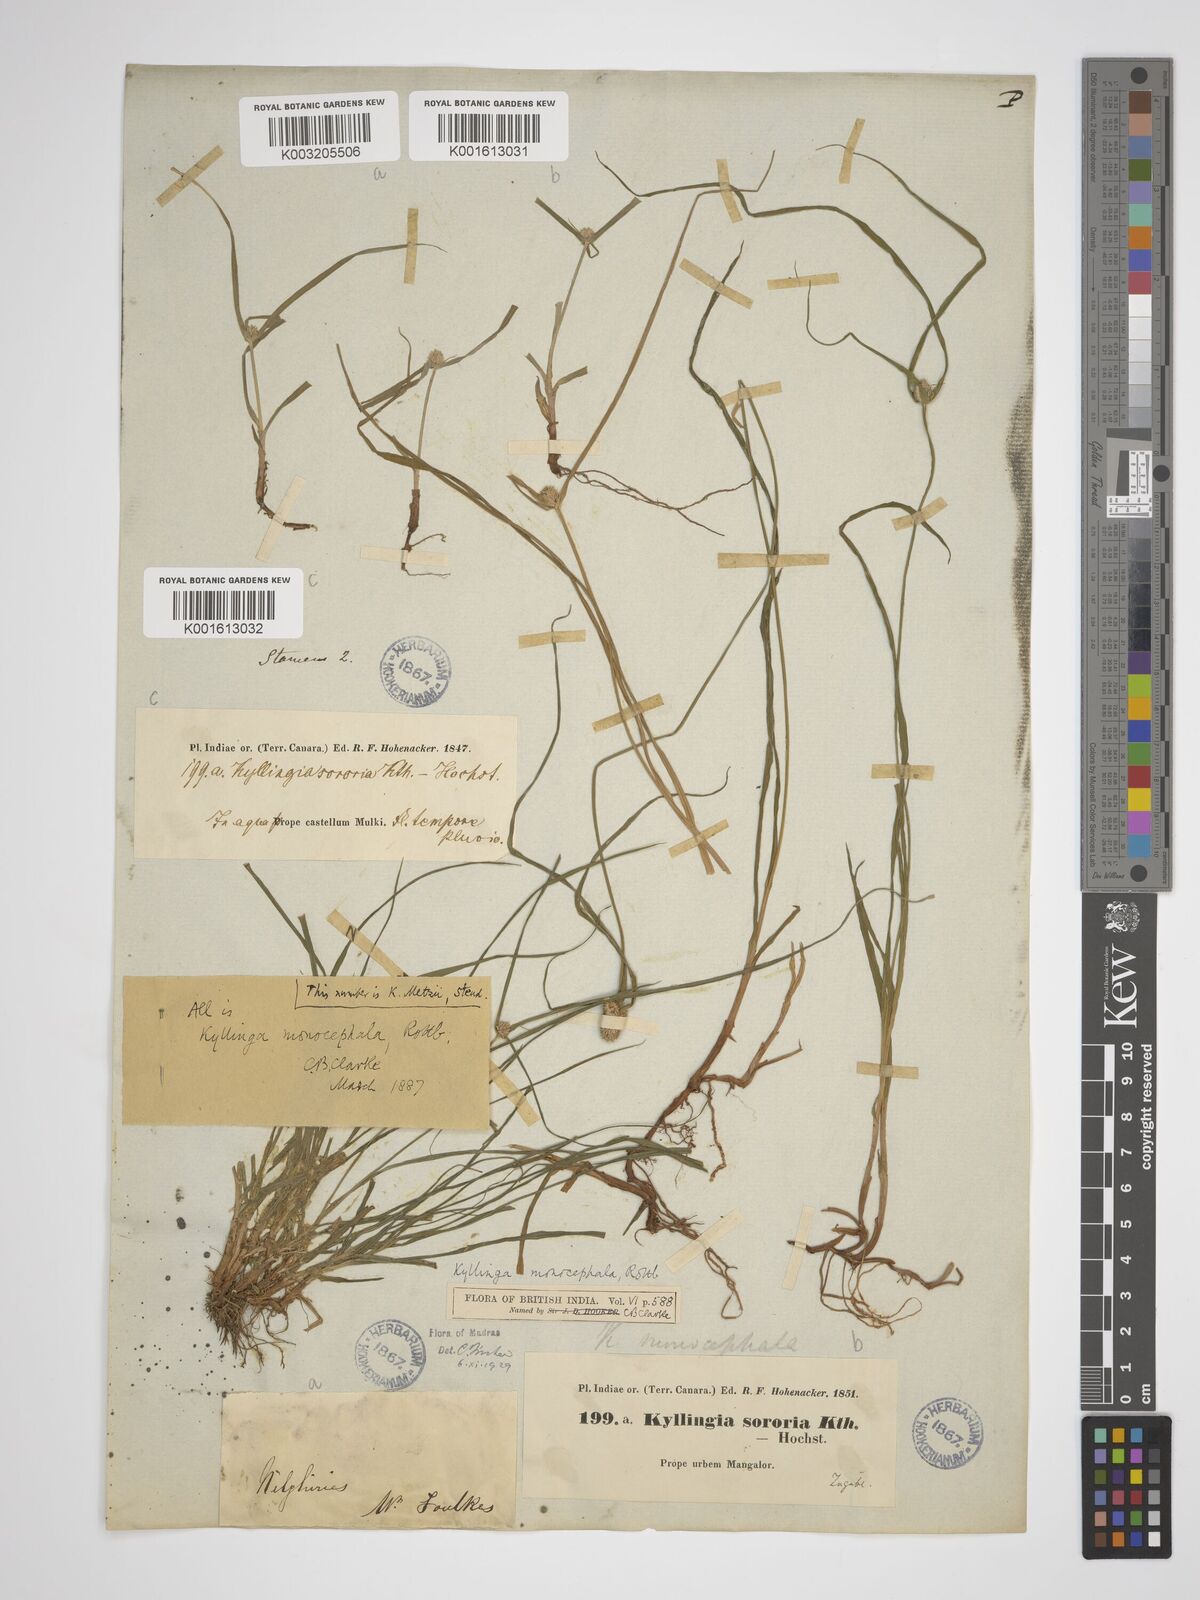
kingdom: Plantae
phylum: Tracheophyta
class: Liliopsida
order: Poales
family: Cyperaceae
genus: Rhynchospora
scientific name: Rhynchospora colorata
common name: Star sedge
